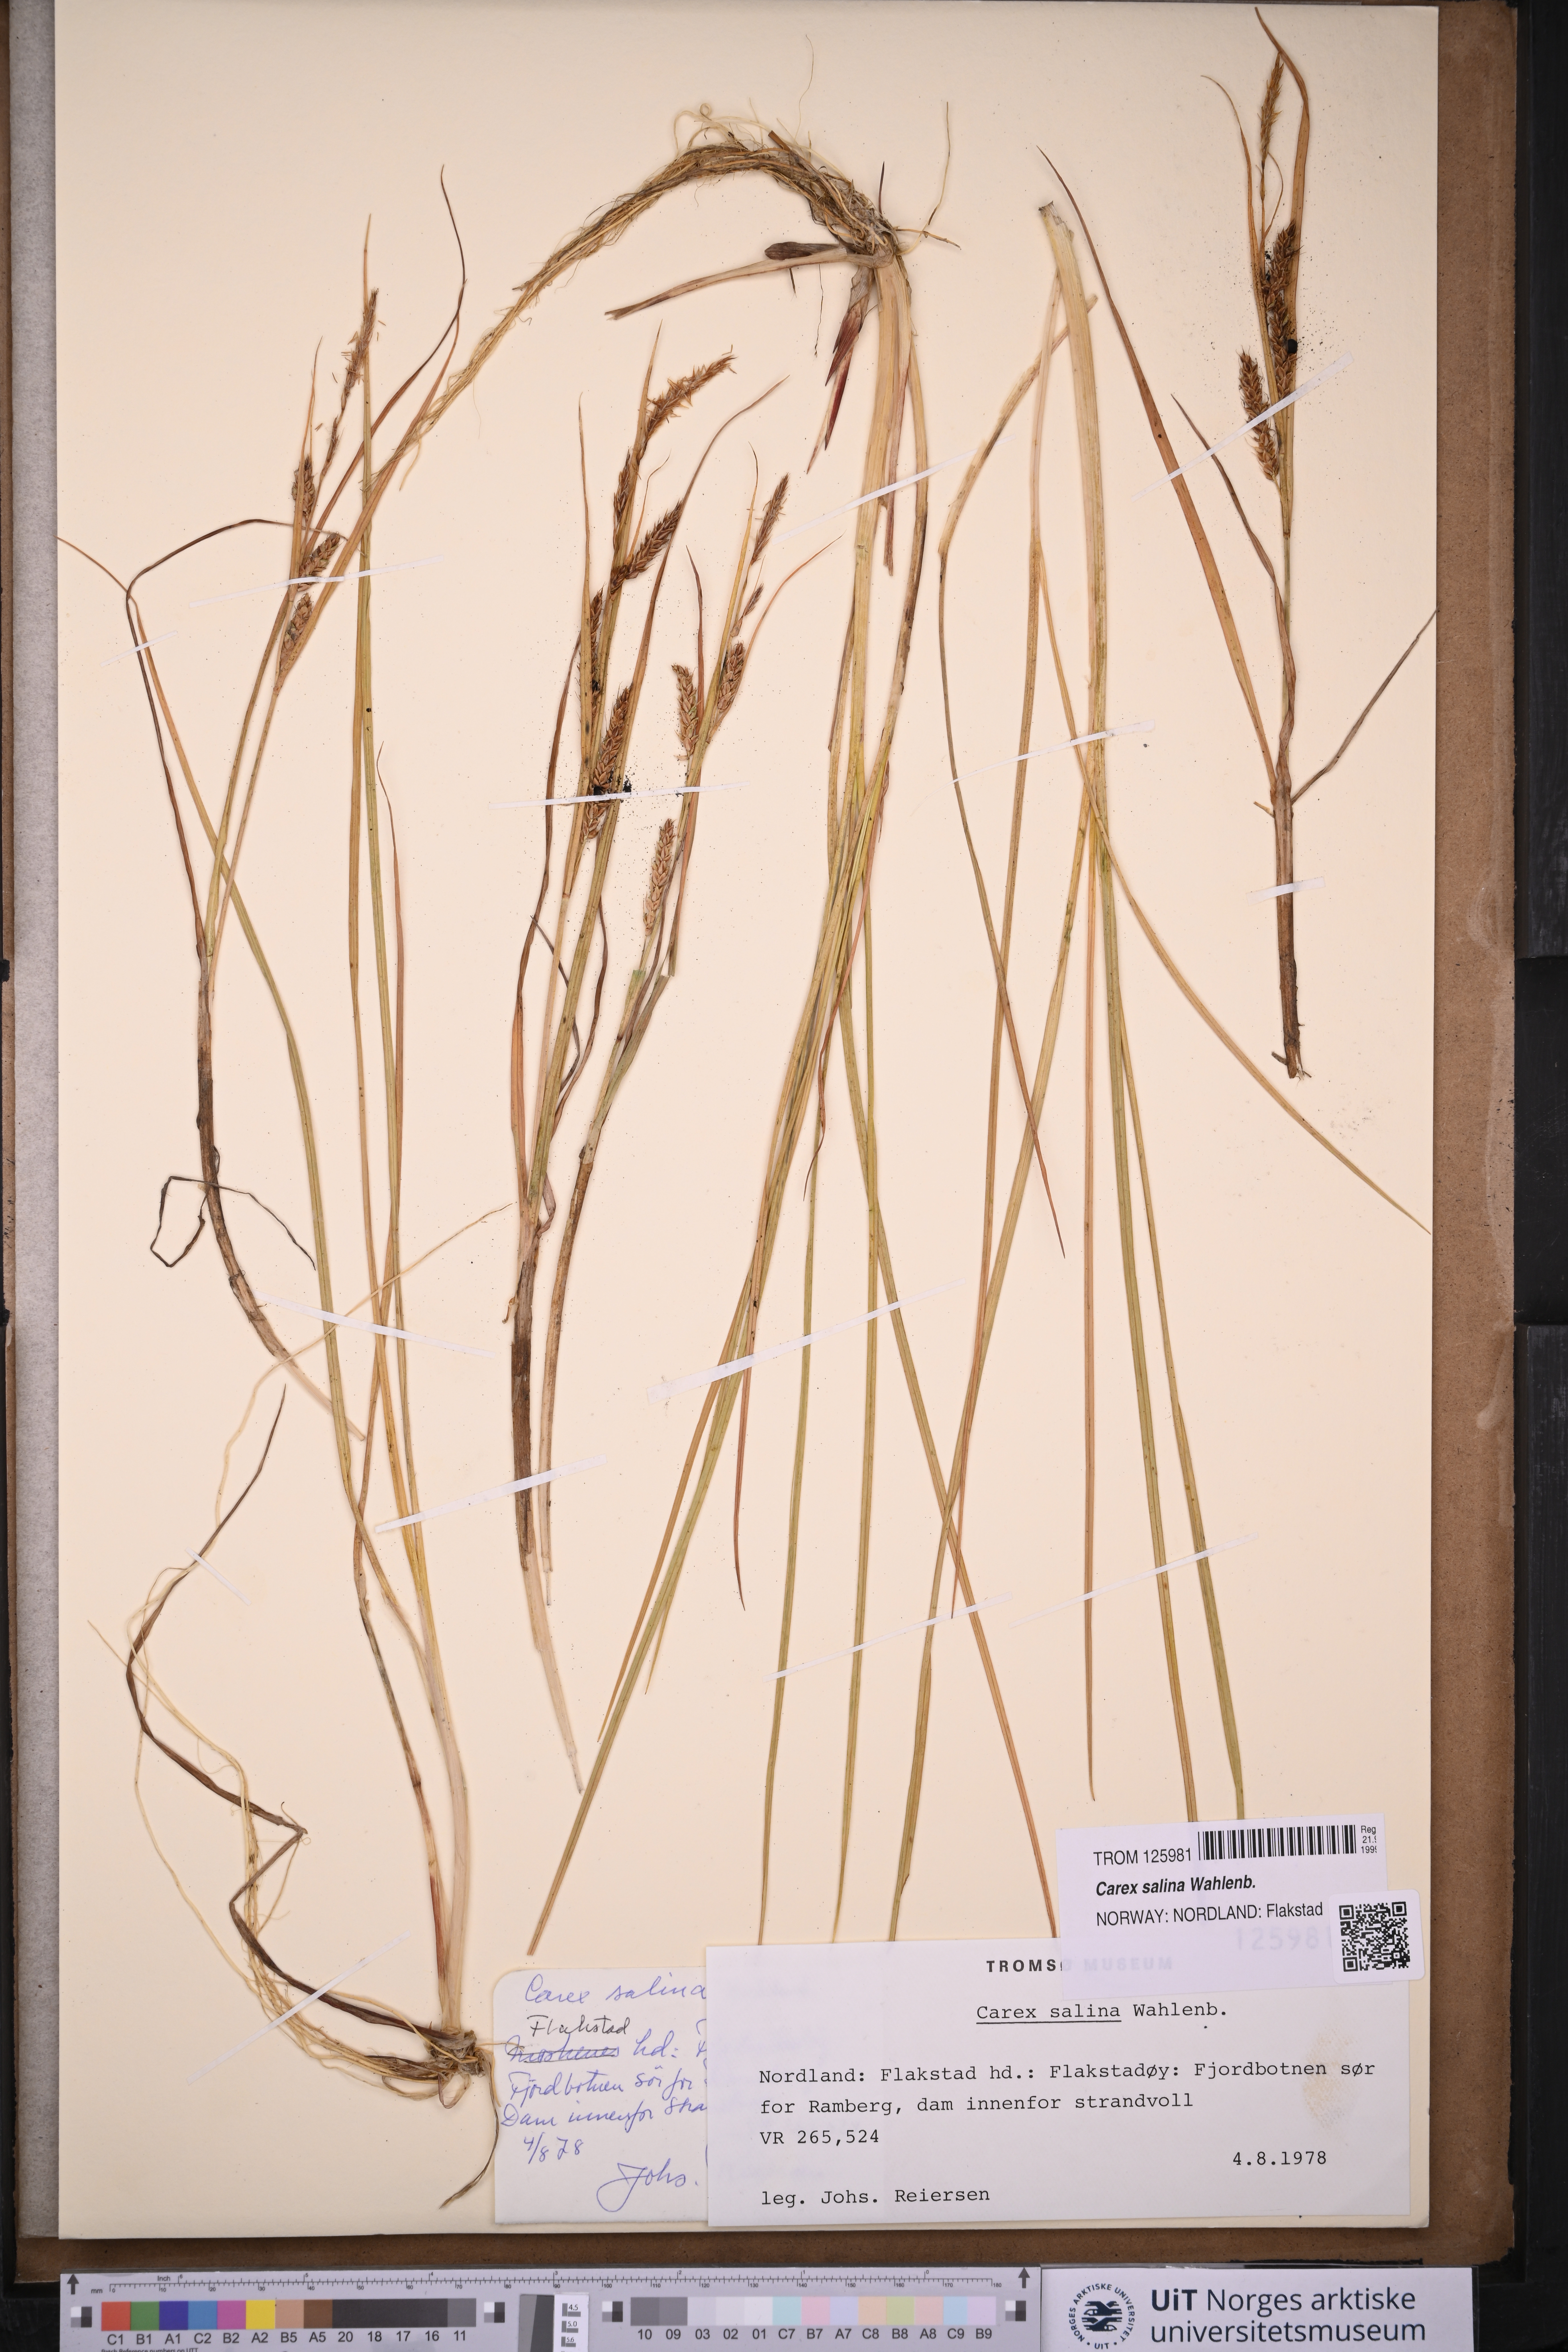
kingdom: Plantae
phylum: Tracheophyta
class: Liliopsida
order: Poales
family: Cyperaceae
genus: Carex
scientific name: Carex salina
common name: Saltmarsh sedge
